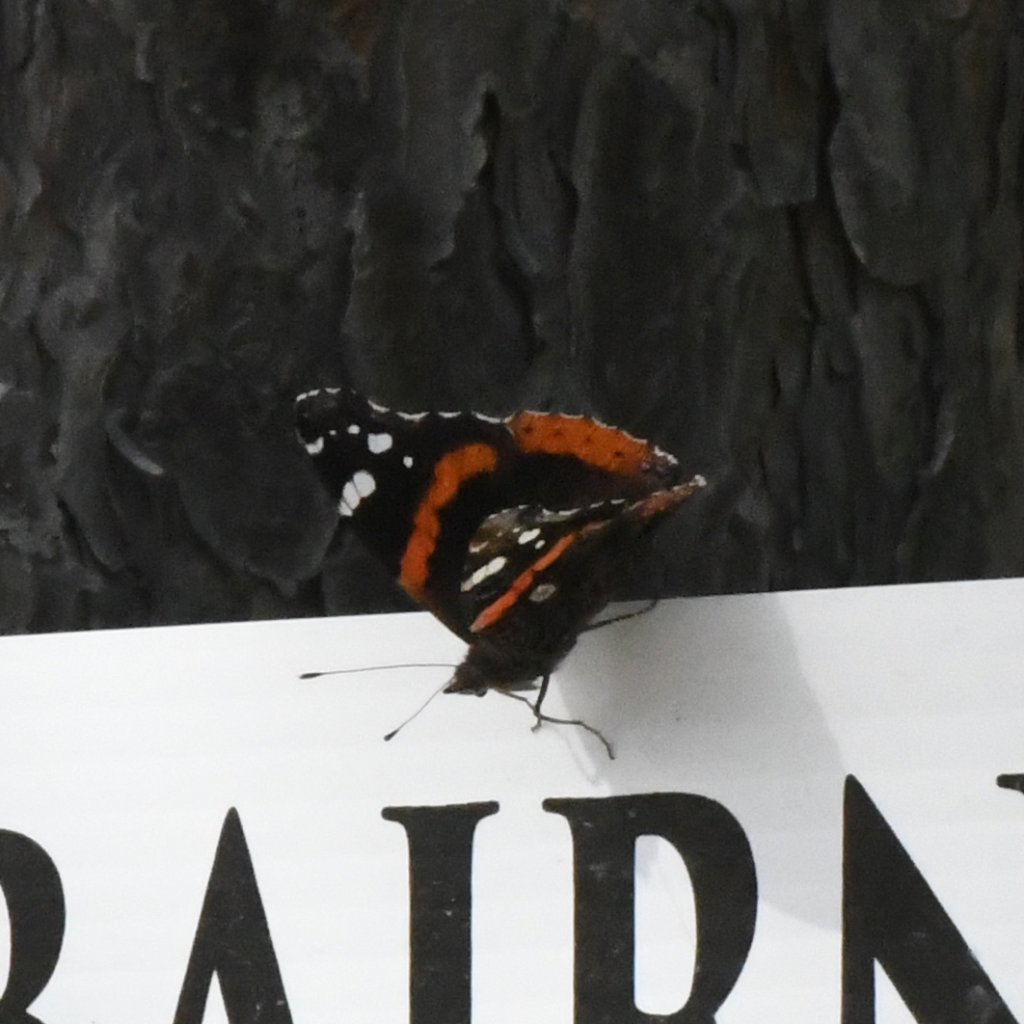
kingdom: Animalia
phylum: Arthropoda
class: Insecta
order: Lepidoptera
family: Nymphalidae
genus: Vanessa
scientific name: Vanessa atalanta
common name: Red Admiral
